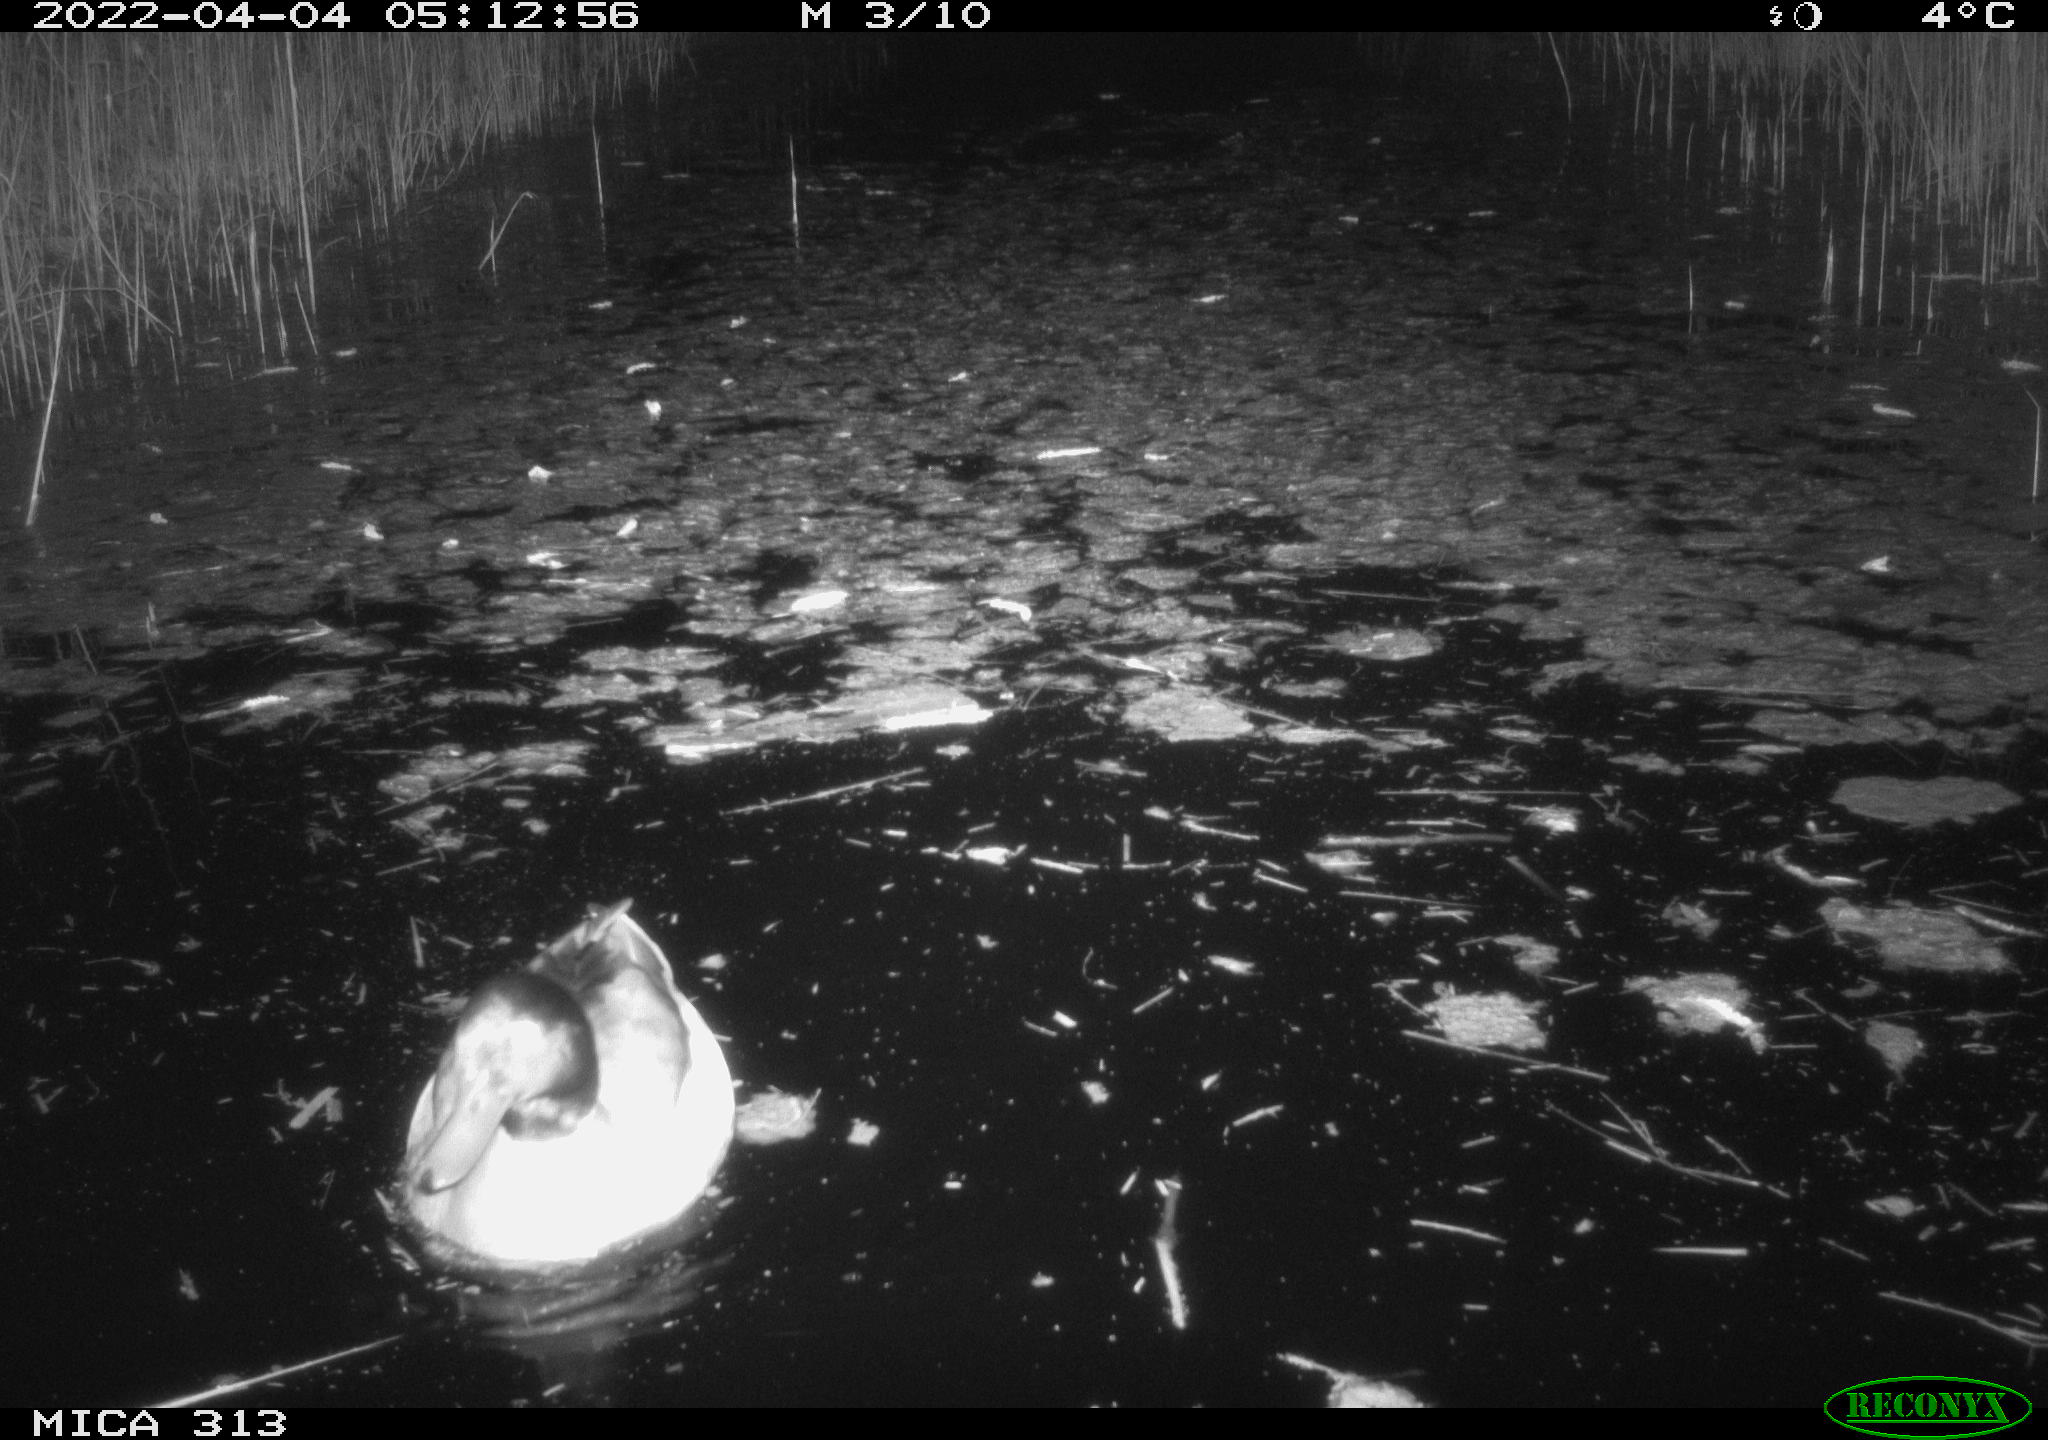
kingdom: Animalia
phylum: Chordata
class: Aves
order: Anseriformes
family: Anatidae
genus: Anas
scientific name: Anas platyrhynchos
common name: Mallard
